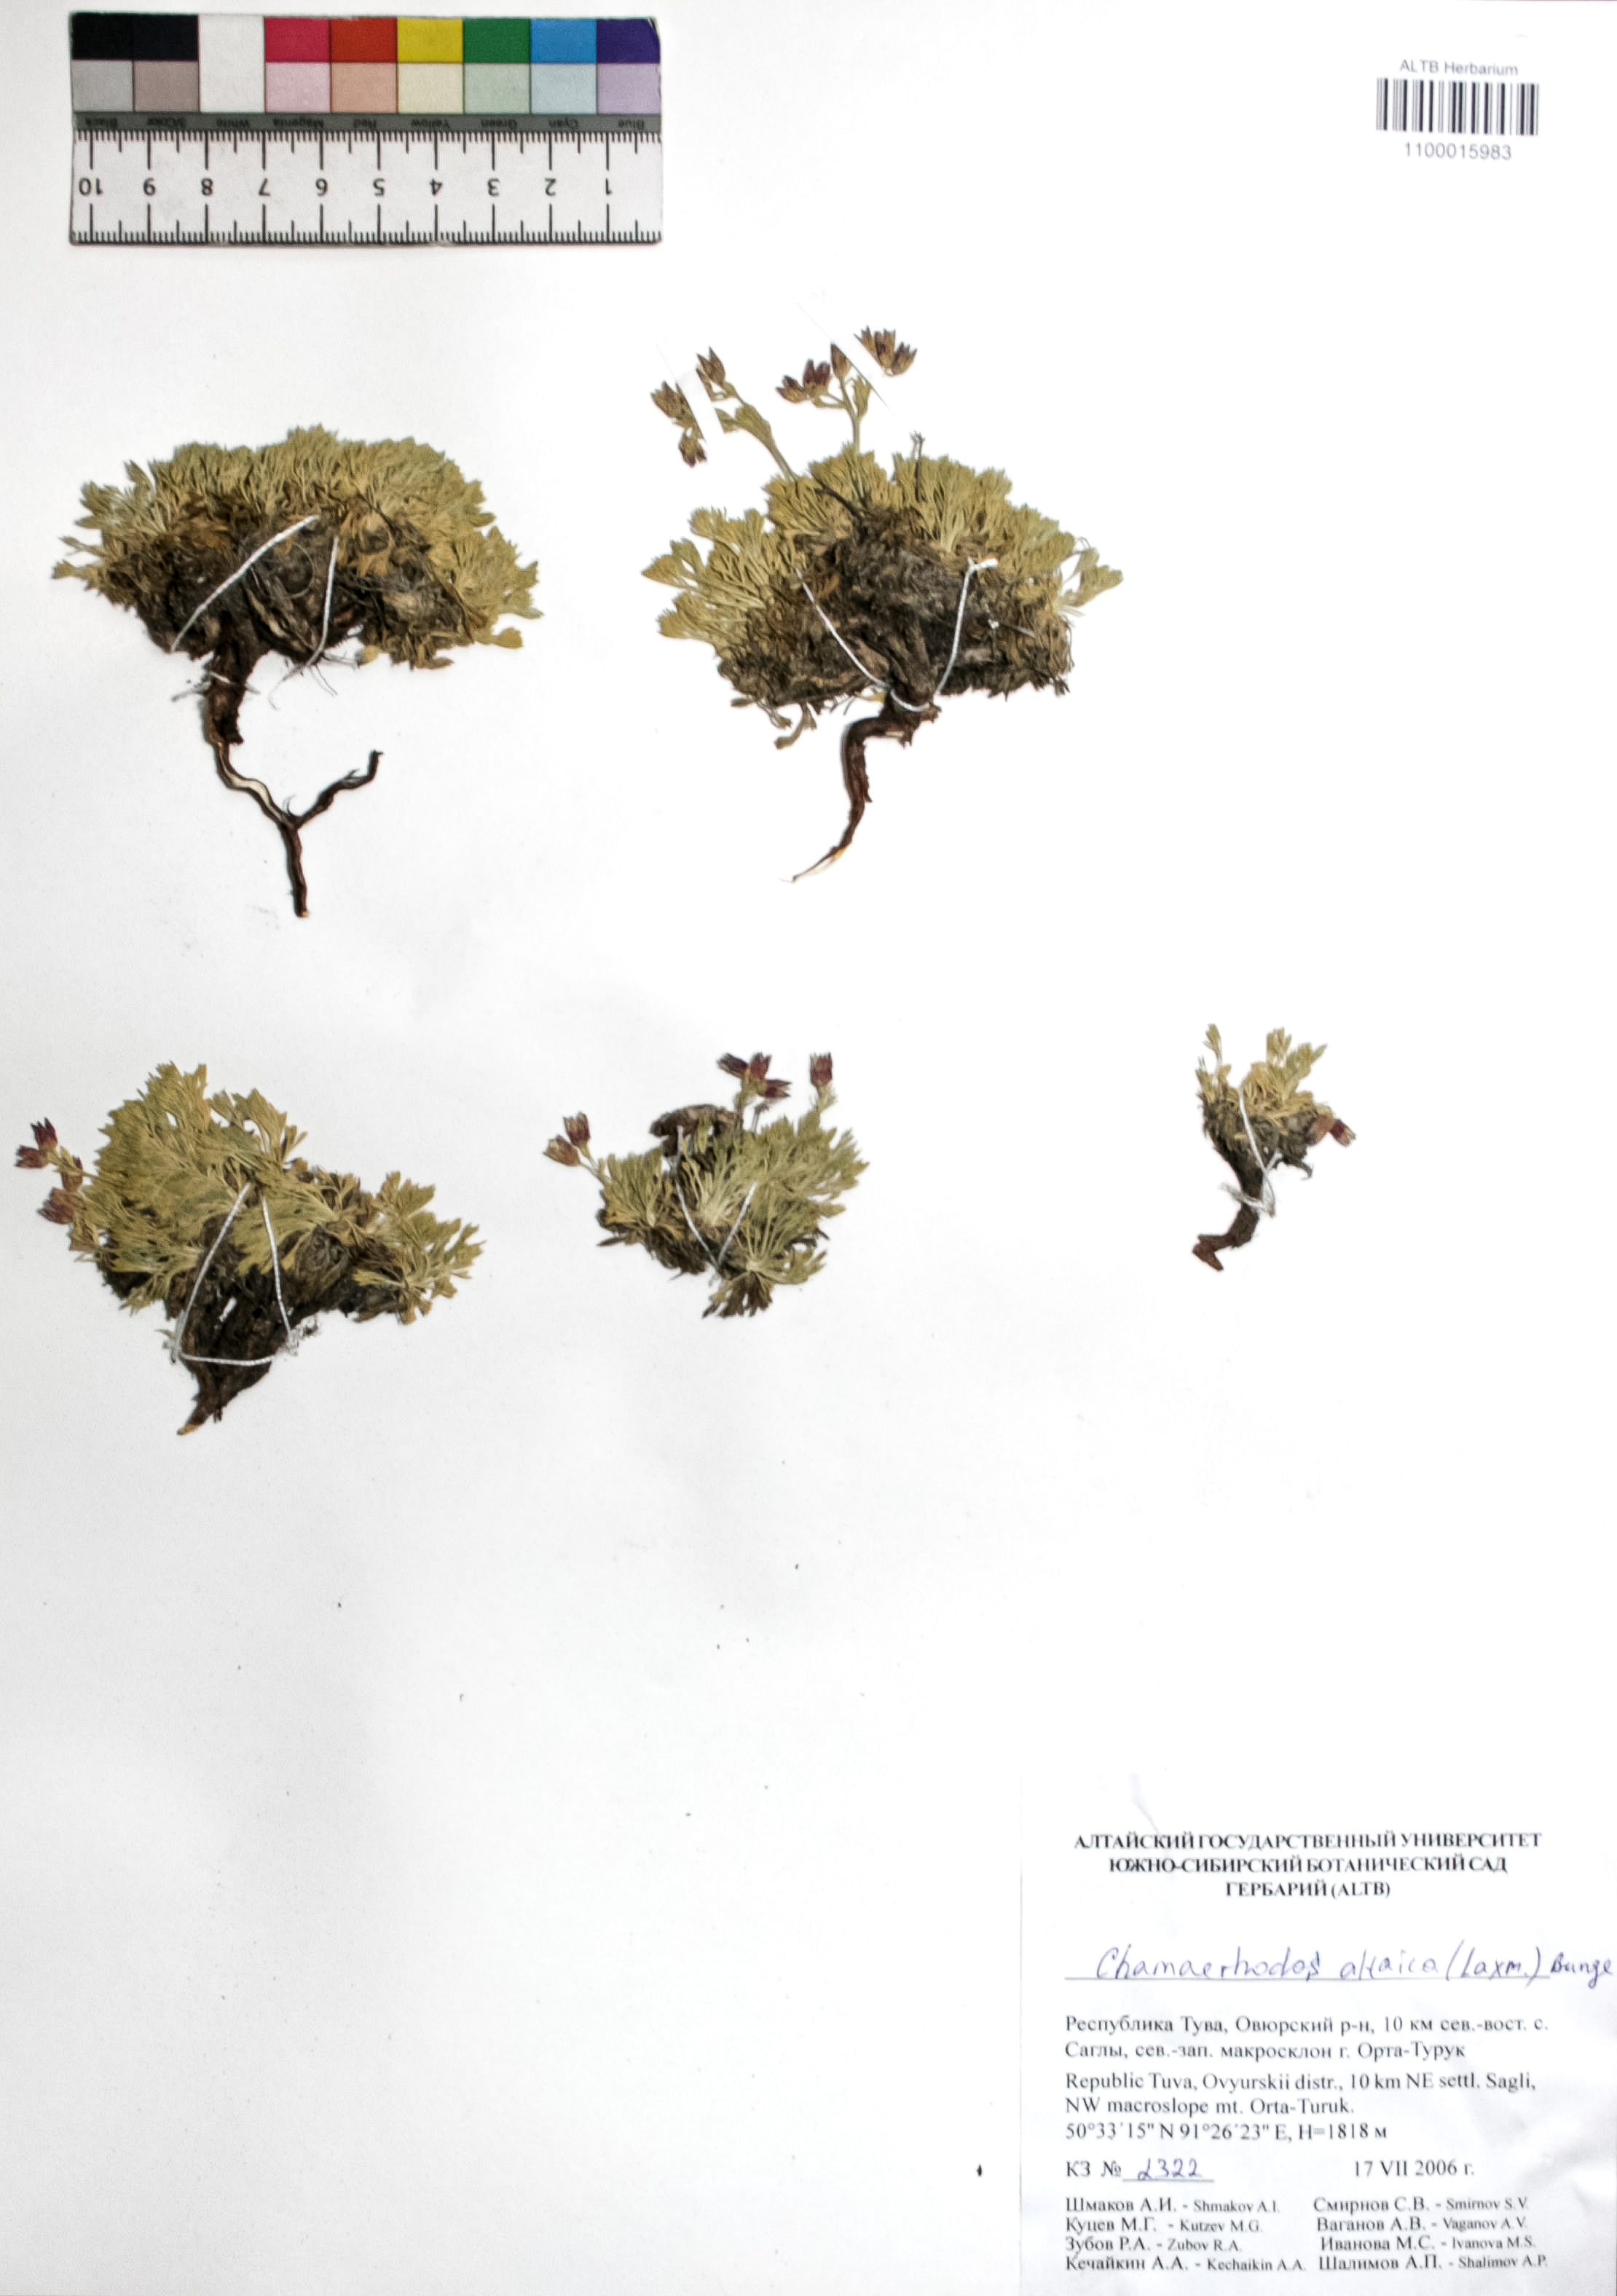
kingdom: Plantae
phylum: Tracheophyta
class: Magnoliopsida
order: Rosales
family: Rosaceae
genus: Chamaerhodos
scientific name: Chamaerhodos altaica
